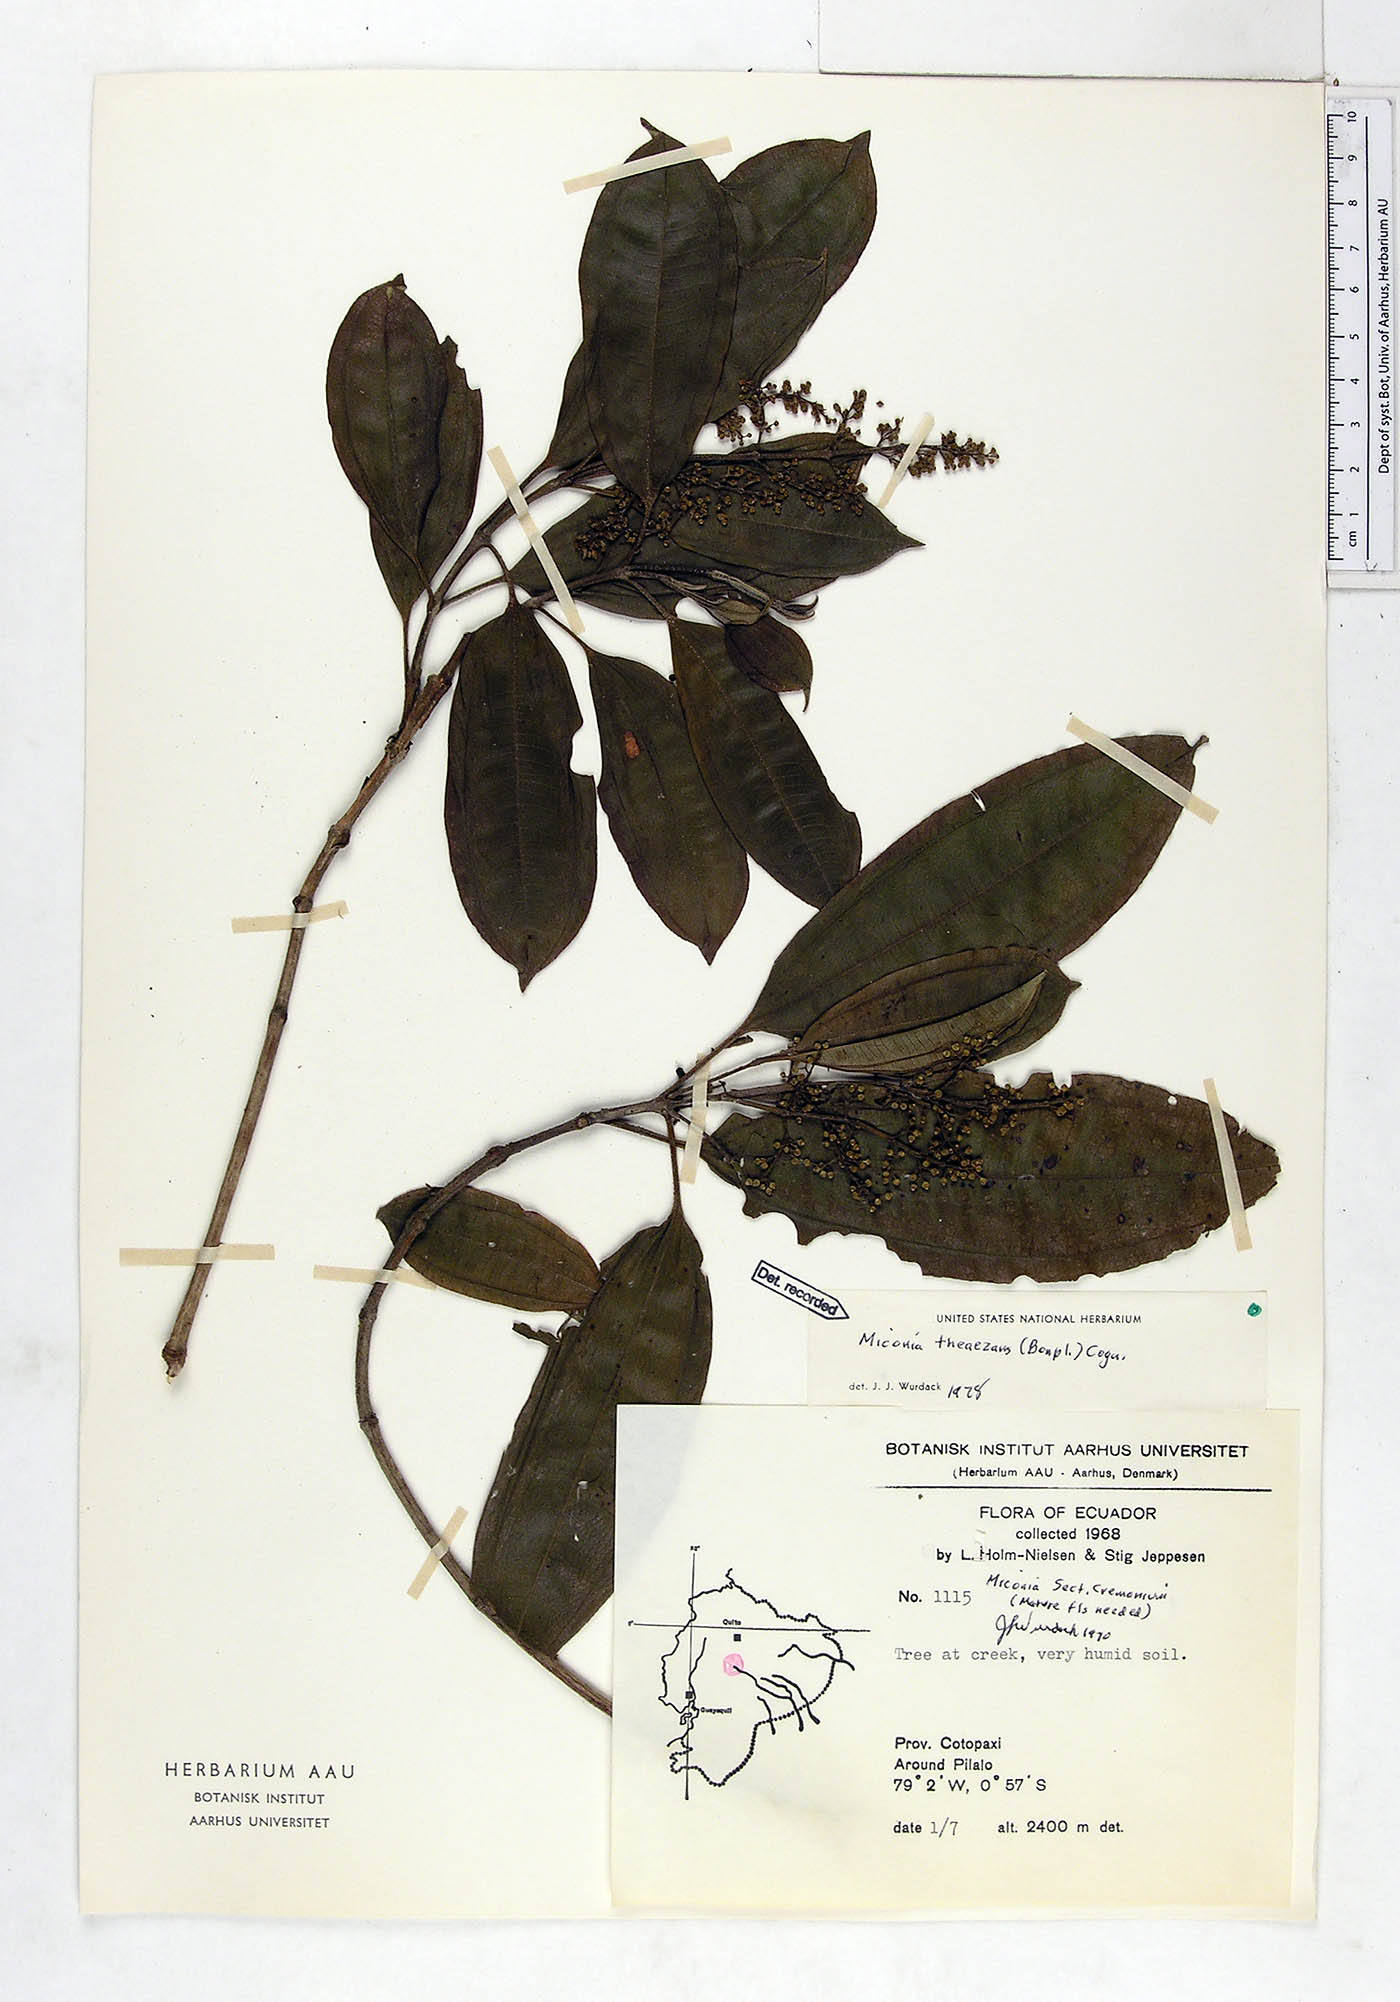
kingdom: Plantae
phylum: Tracheophyta
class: Magnoliopsida
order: Myrtales
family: Melastomataceae
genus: Miconia
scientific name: Miconia theizans
